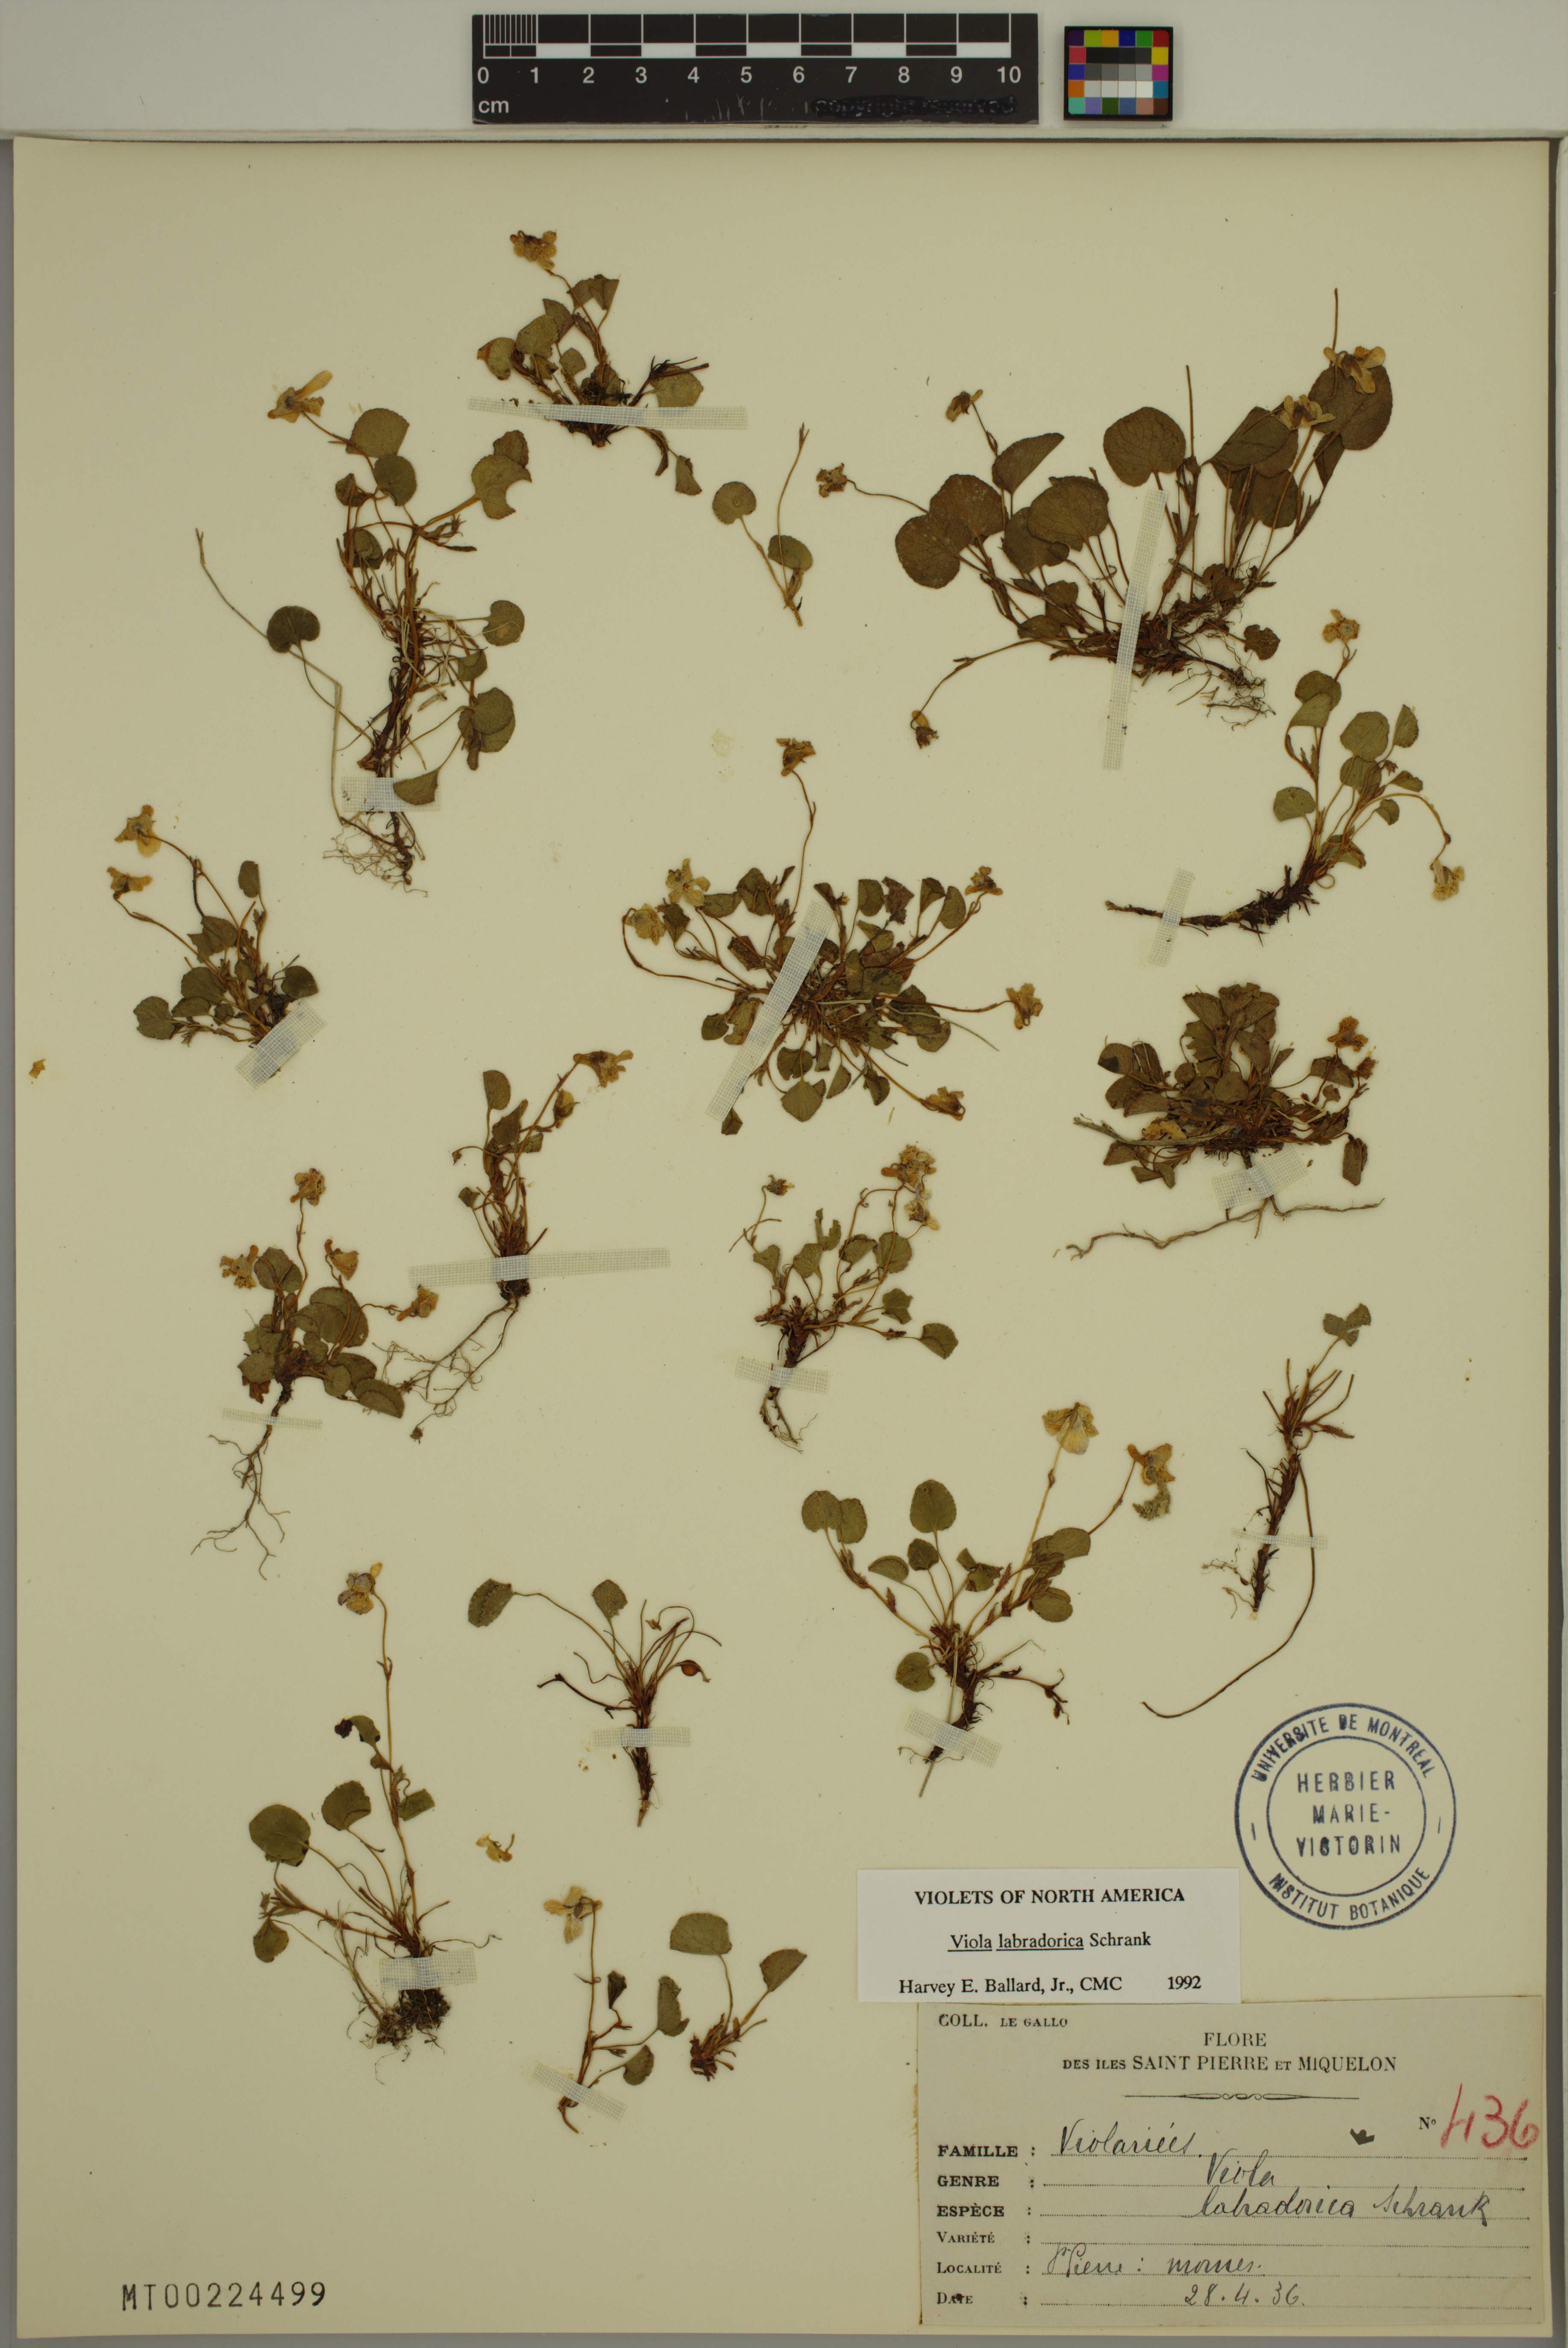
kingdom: Plantae
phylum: Tracheophyta
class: Magnoliopsida
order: Malpighiales
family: Violaceae
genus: Viola
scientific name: Viola labradorica
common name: Labrador violet
